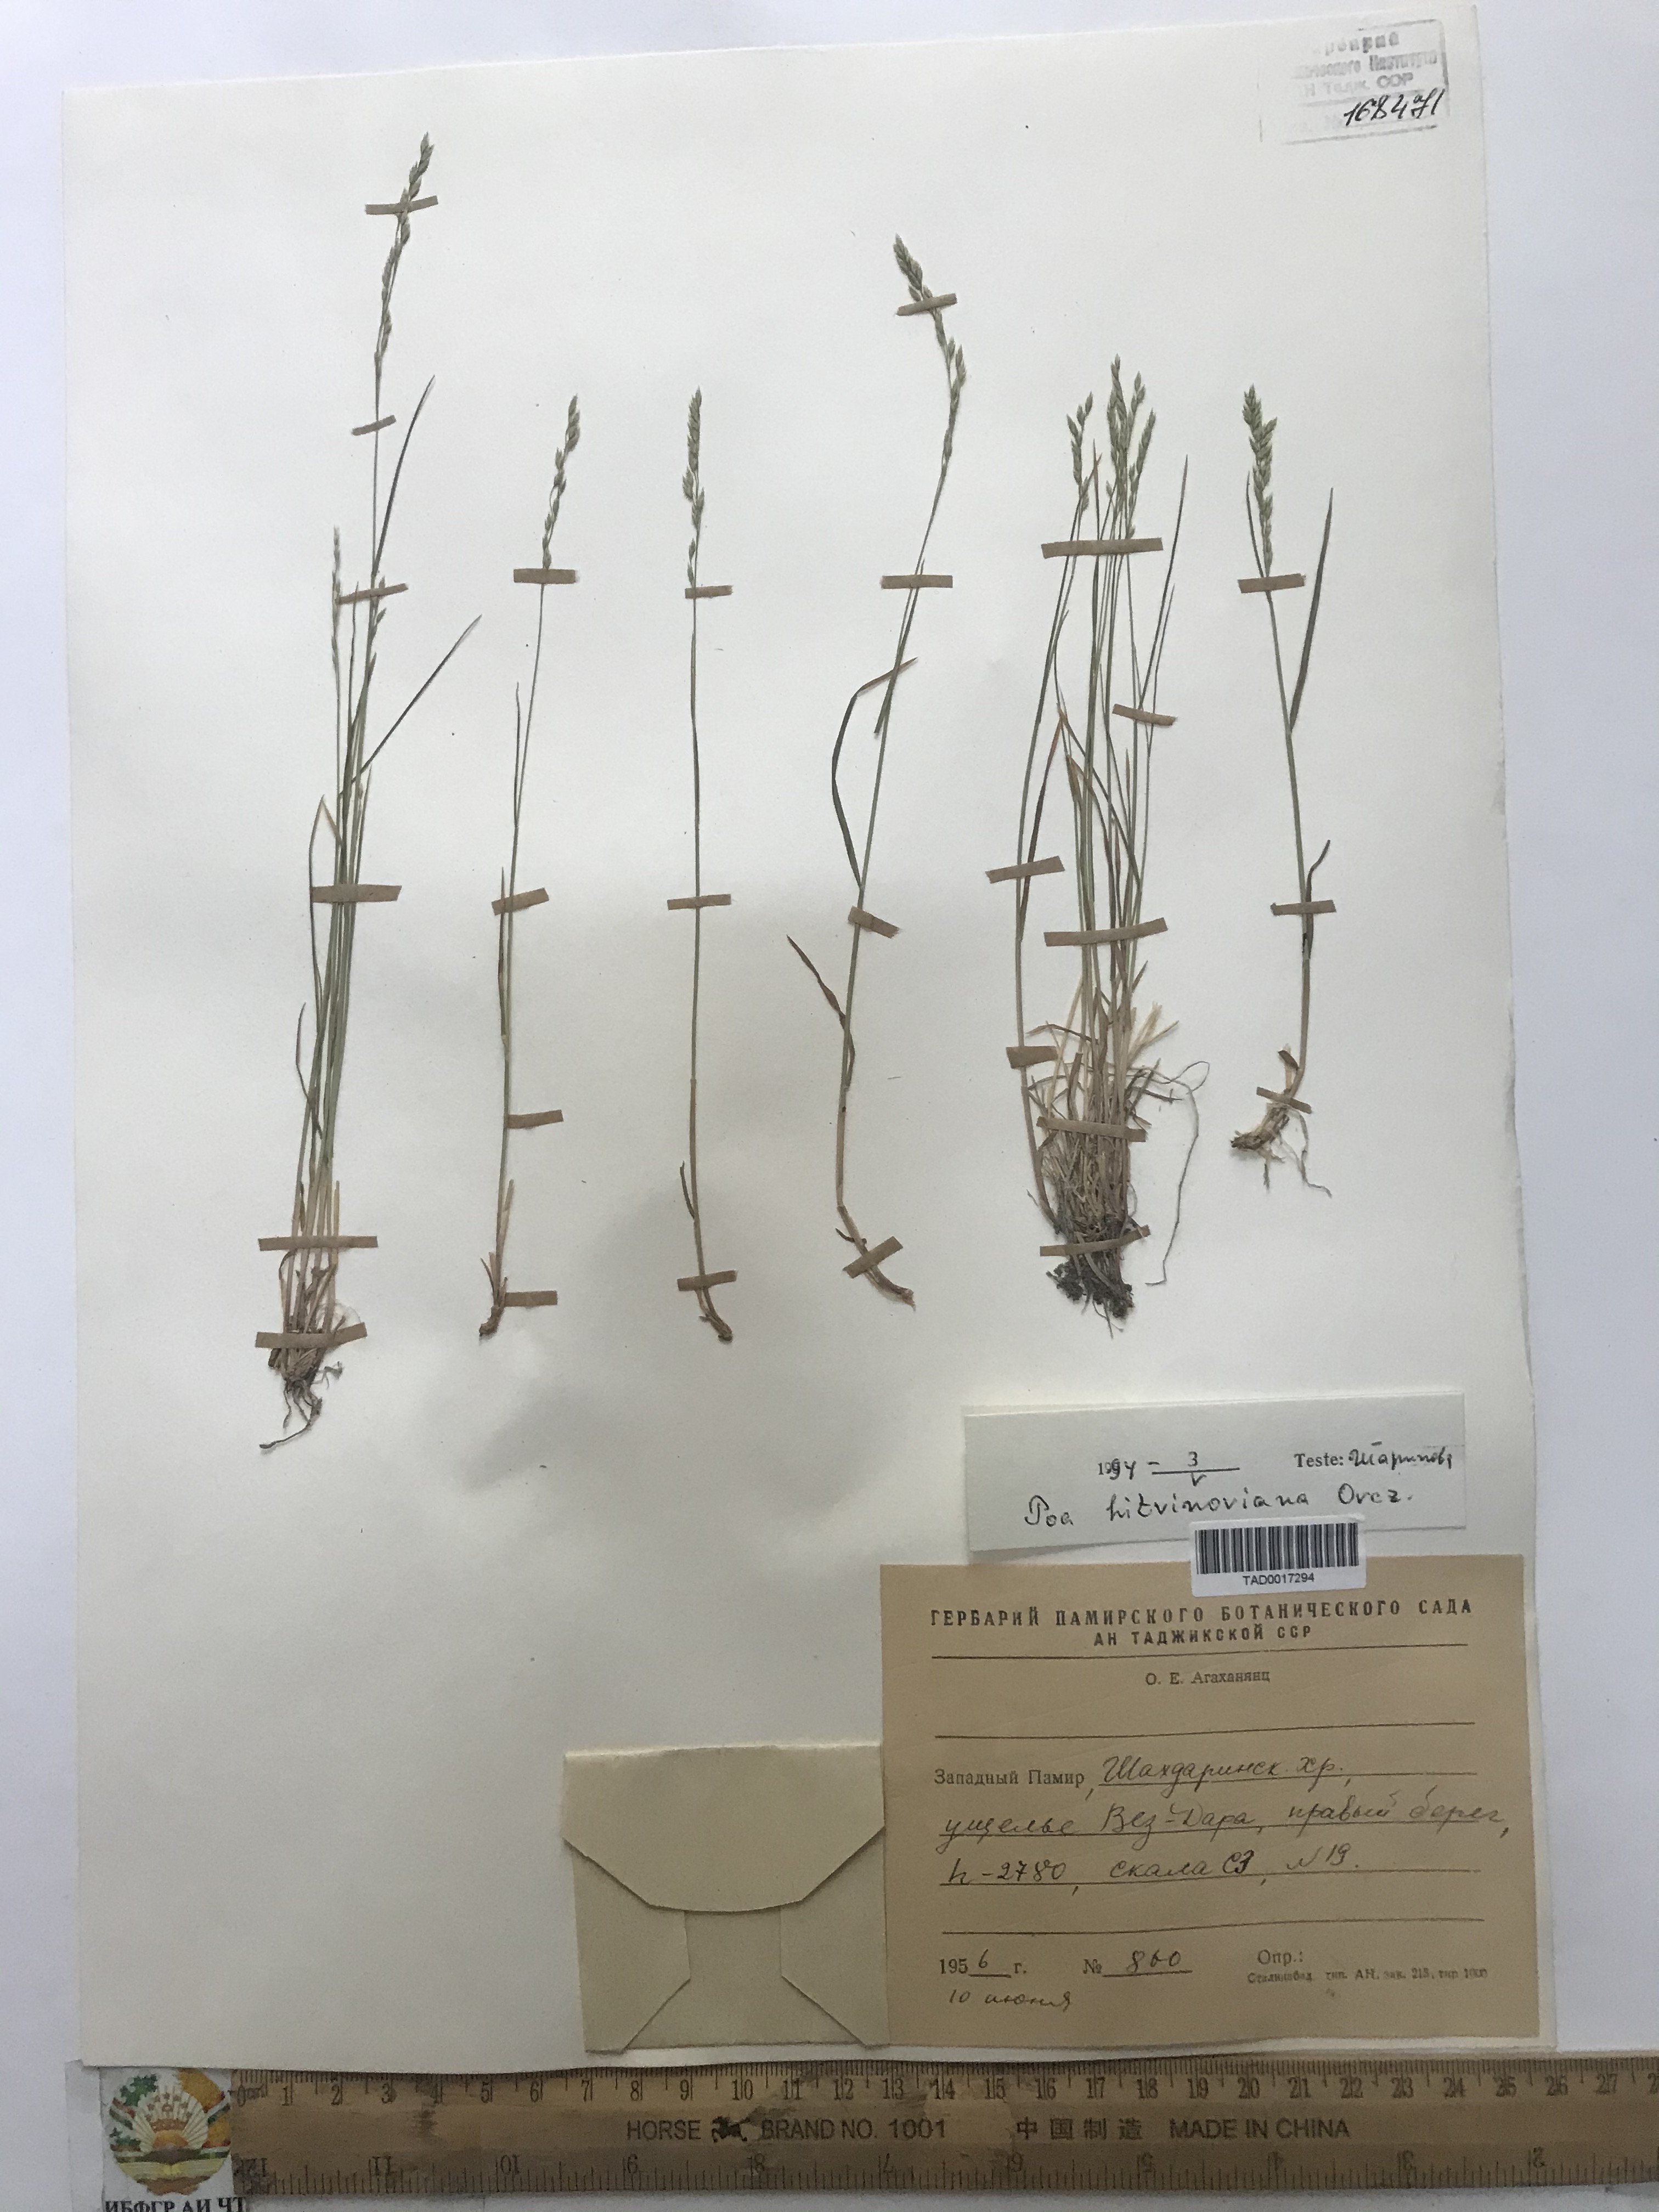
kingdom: Plantae
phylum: Tracheophyta
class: Liliopsida
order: Poales
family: Poaceae
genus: Poa
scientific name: Poa glauca
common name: Glaucous bluegrass
